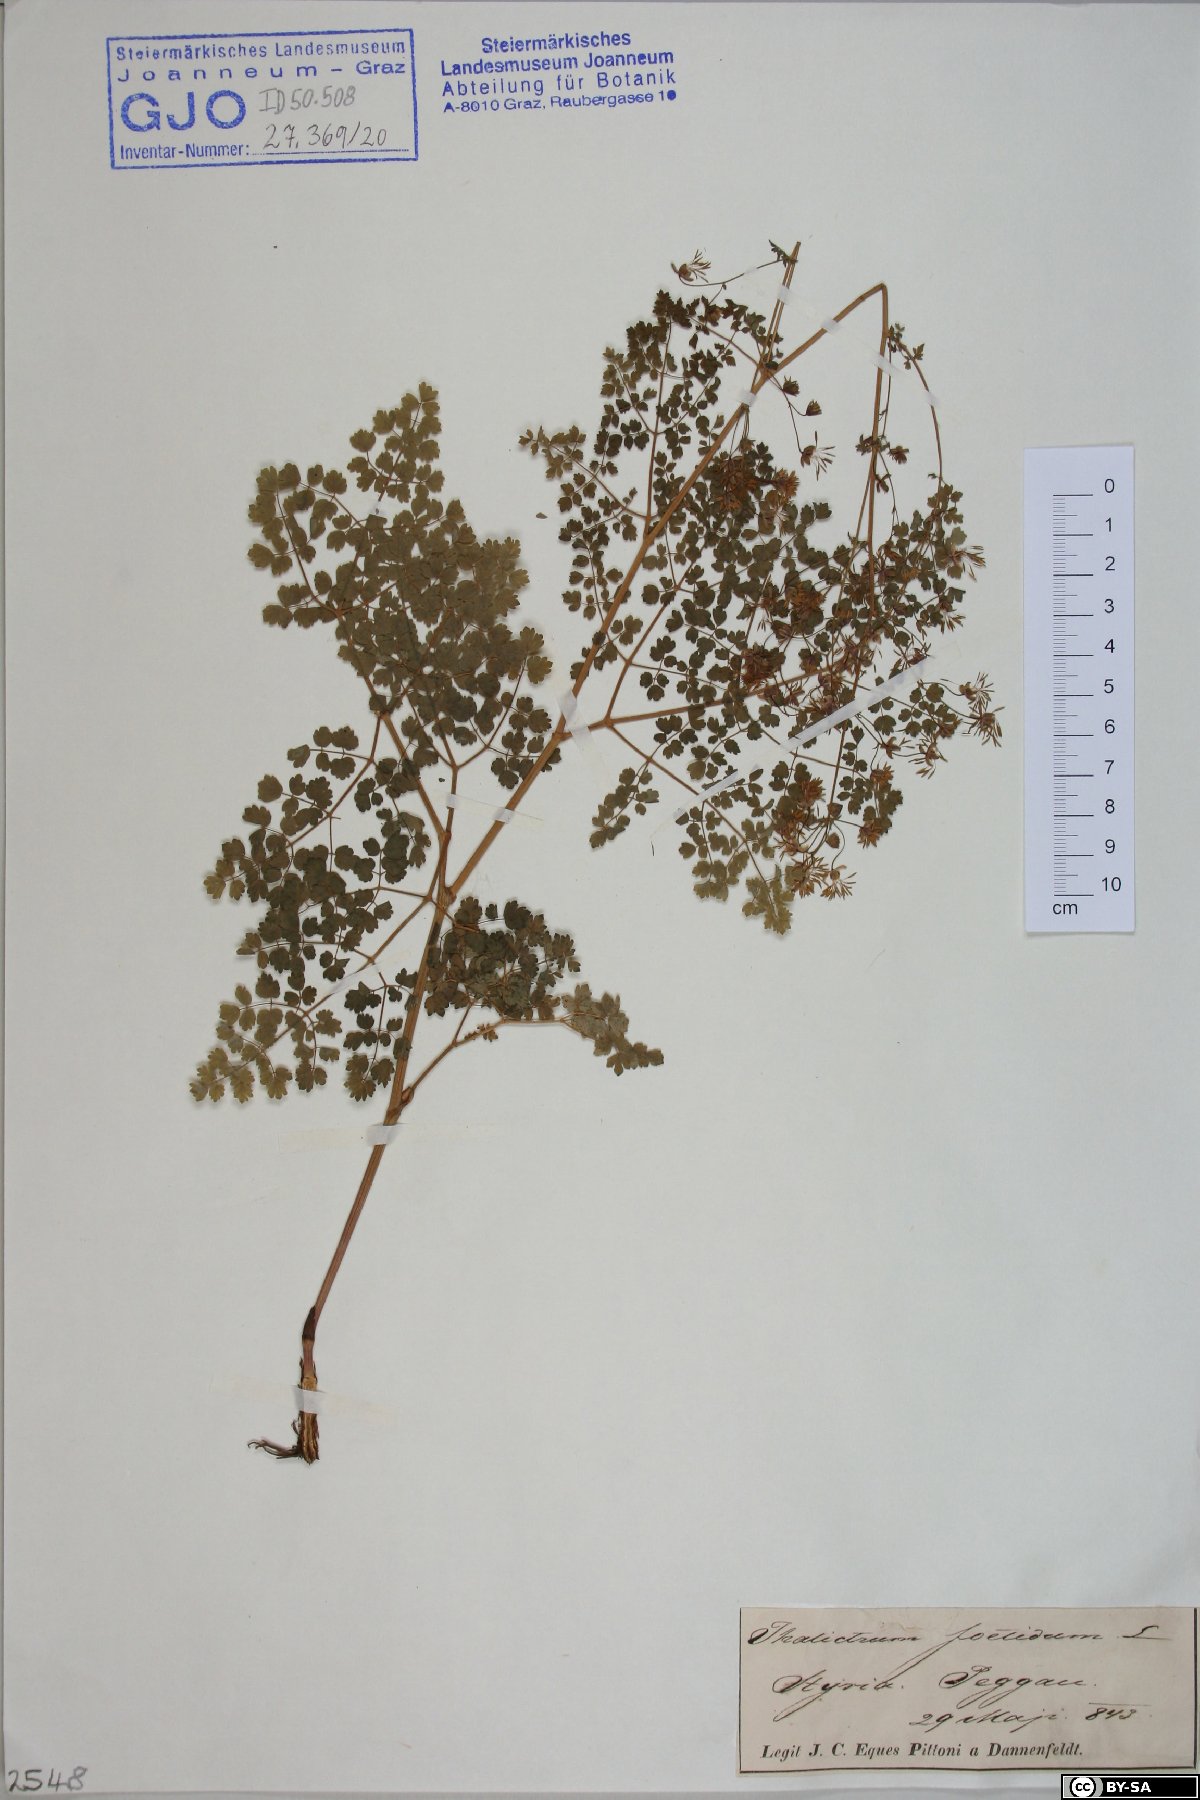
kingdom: Plantae
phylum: Tracheophyta
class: Magnoliopsida
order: Ranunculales
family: Ranunculaceae
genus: Thalictrum
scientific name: Thalictrum foetidum
